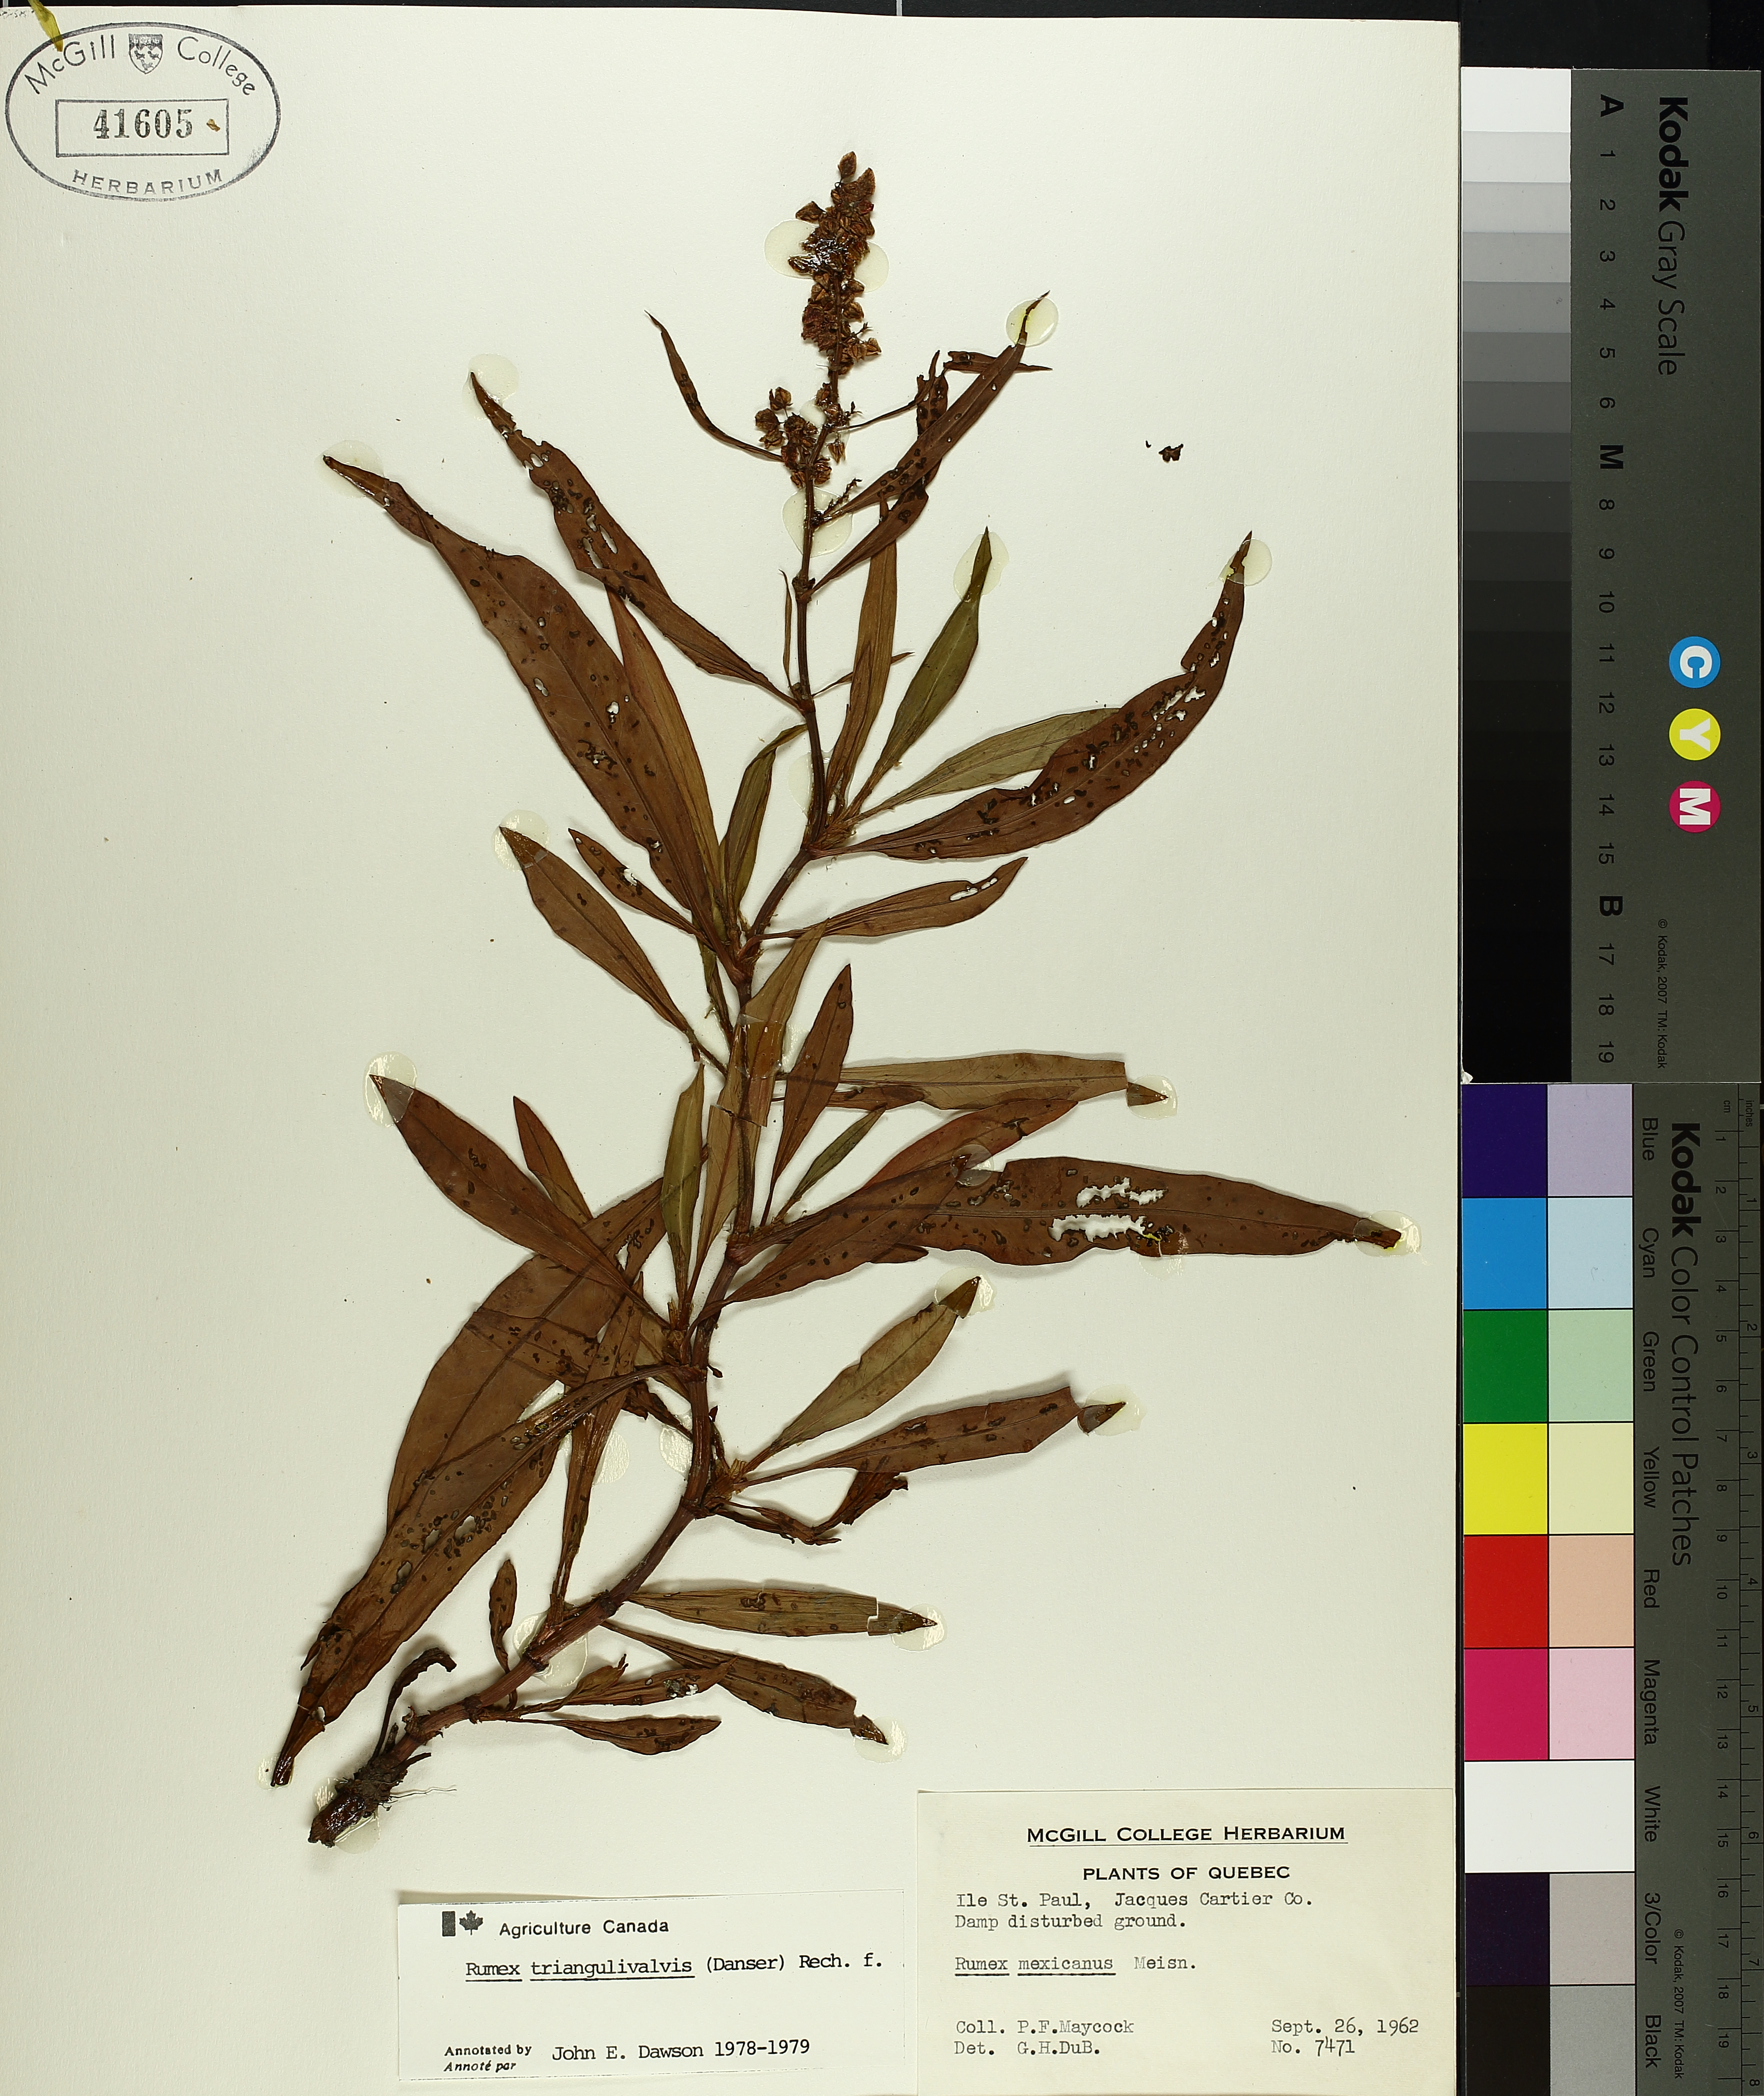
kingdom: Plantae
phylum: Tracheophyta
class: Magnoliopsida
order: Caryophyllales
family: Polygonaceae
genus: Rumex
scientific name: Rumex triangulivalvis
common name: Triangular-valve dock
